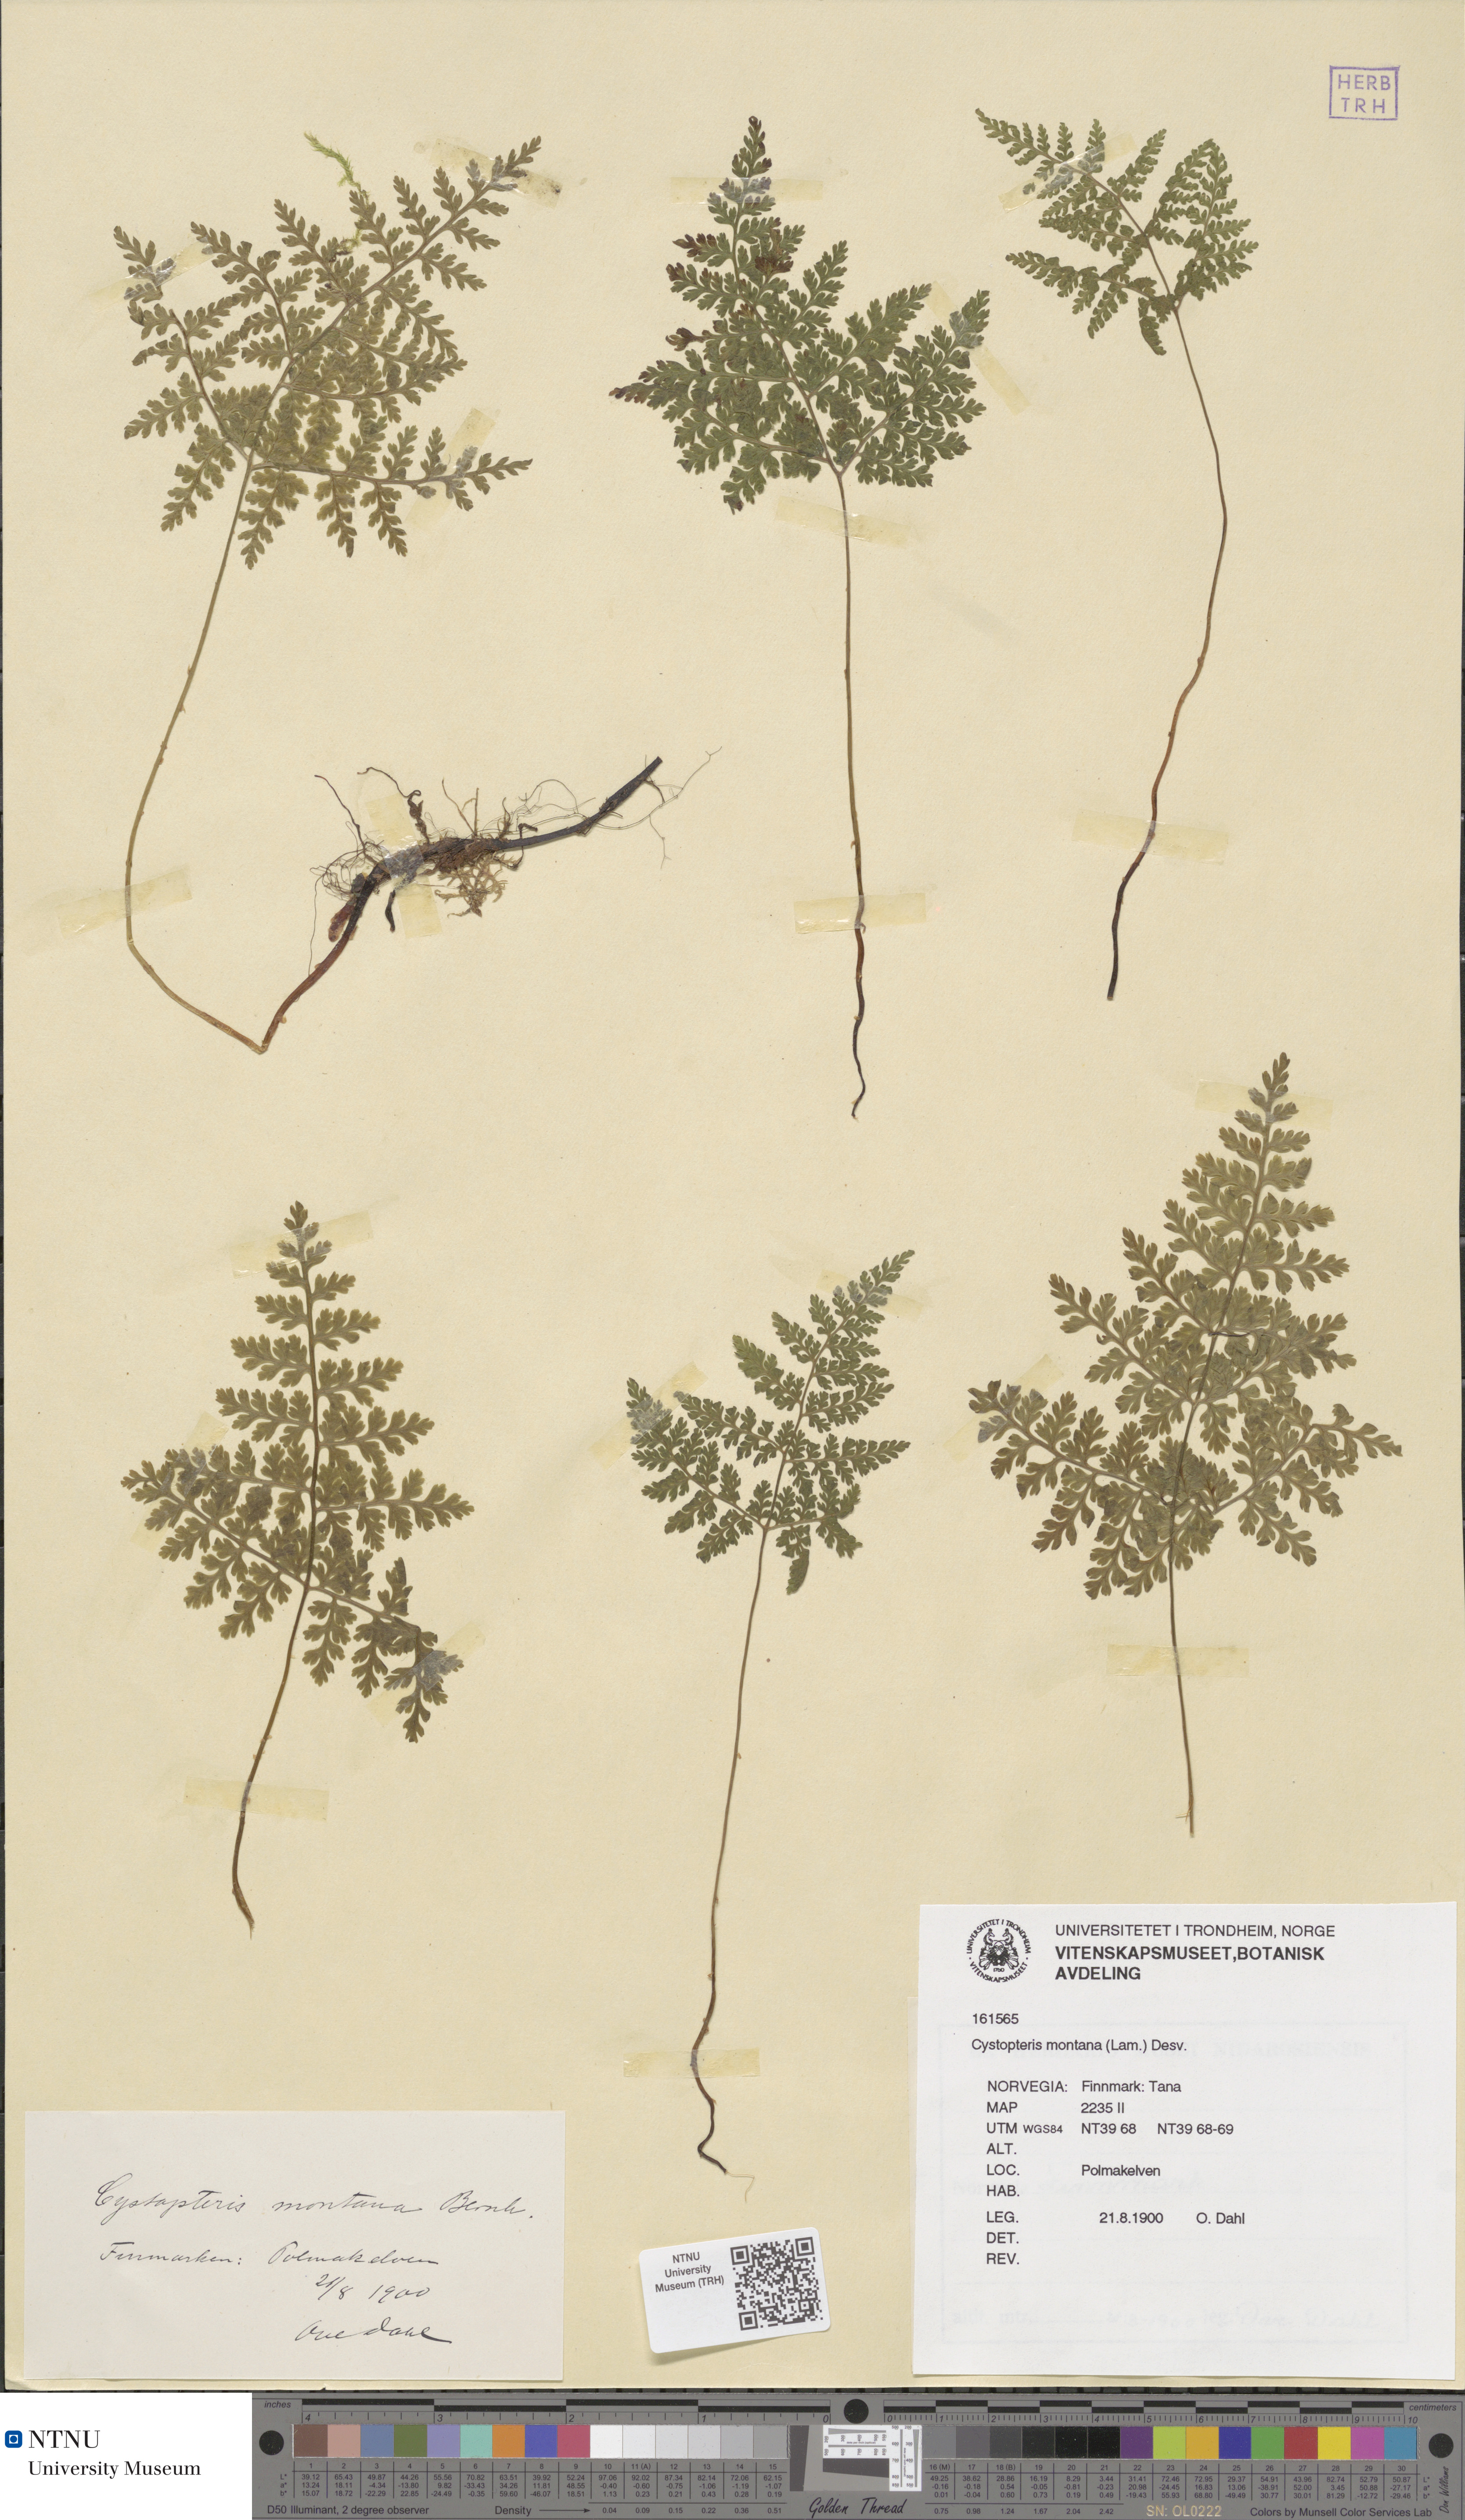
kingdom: Plantae
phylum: Tracheophyta
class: Polypodiopsida
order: Polypodiales
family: Cystopteridaceae
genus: Cystopteris
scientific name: Cystopteris montana
